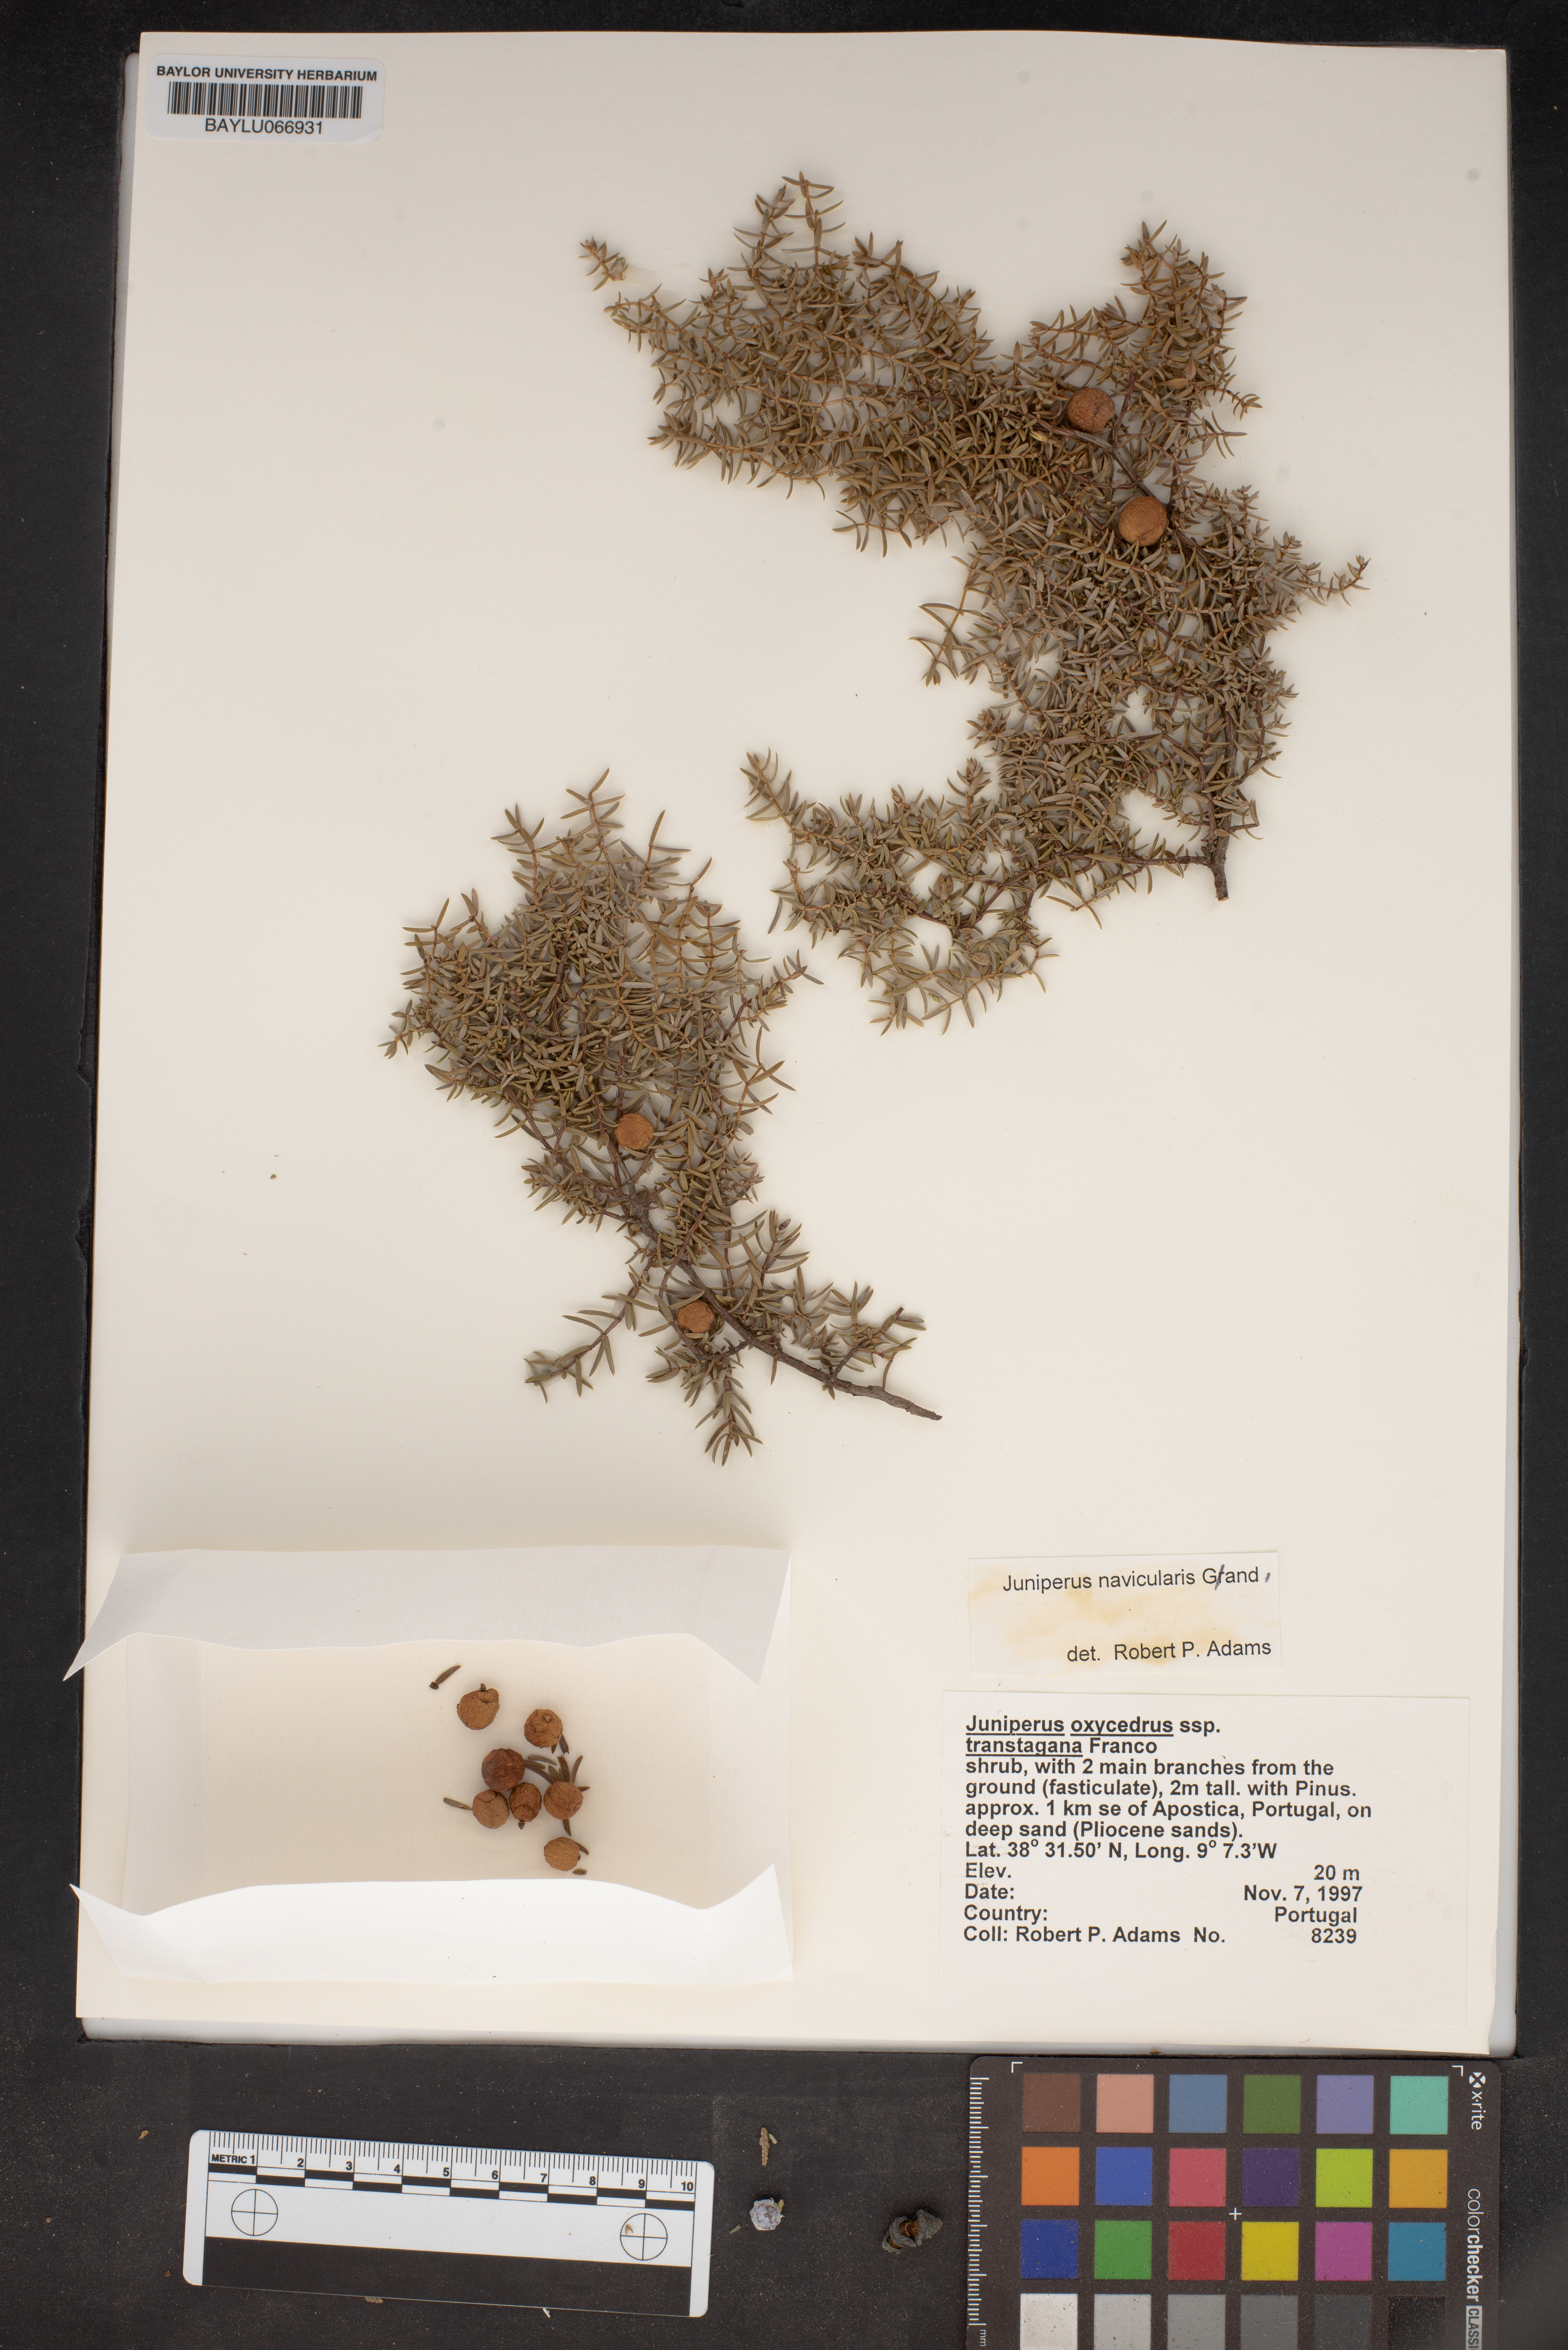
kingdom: Plantae
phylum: Tracheophyta
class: Pinopsida
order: Pinales
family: Cupressaceae
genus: Juniperus
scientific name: Juniperus oxycedrus
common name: Prickly juniper
